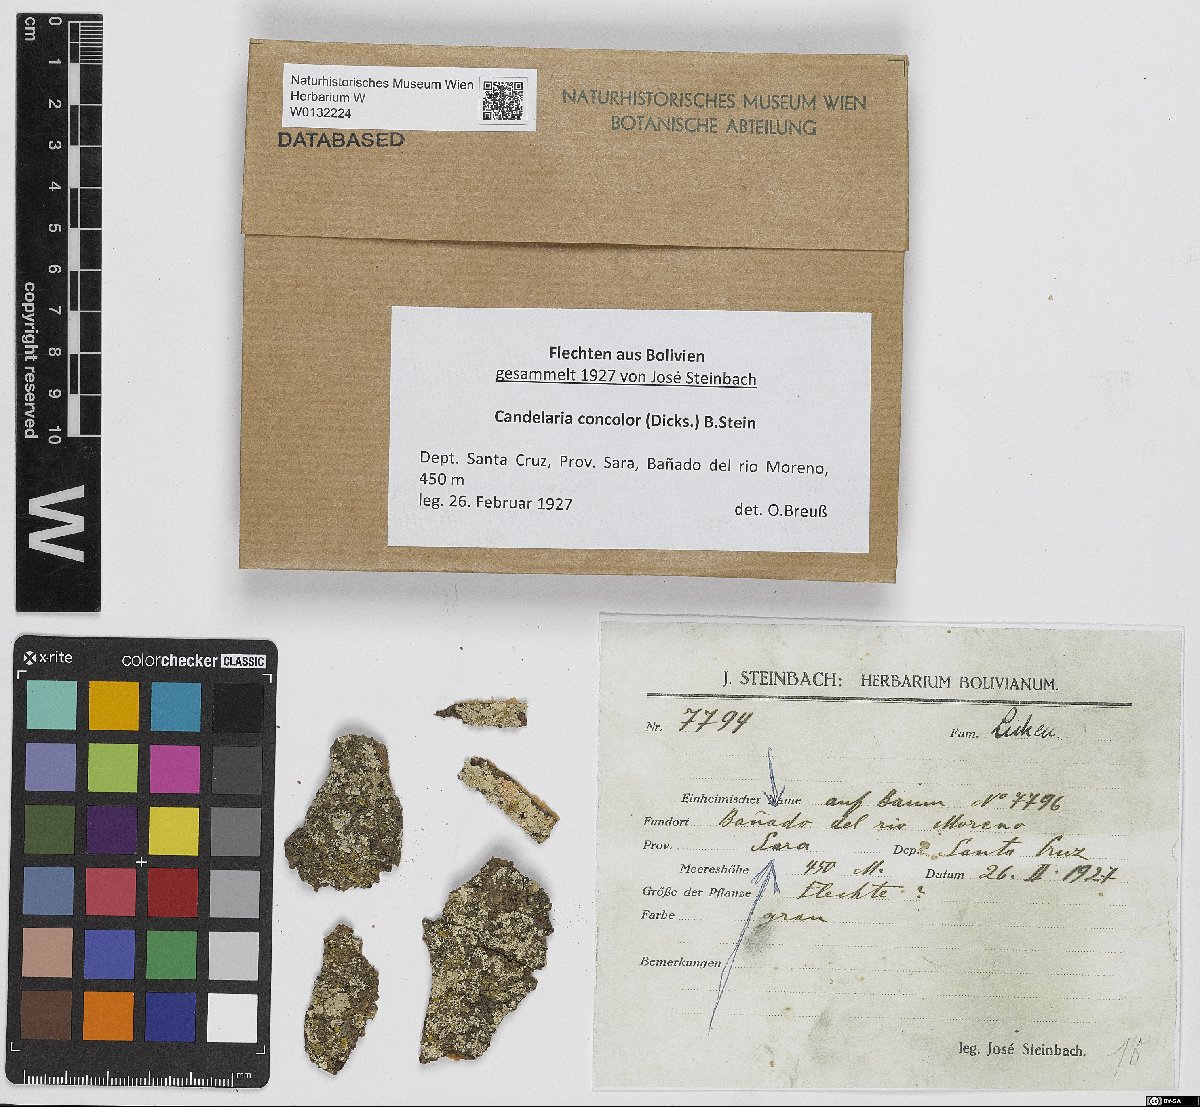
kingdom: Fungi
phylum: Ascomycota
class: Candelariomycetes
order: Candelariales
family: Candelariaceae
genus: Candelaria
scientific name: Candelaria concolor
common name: Candleflame lichen
